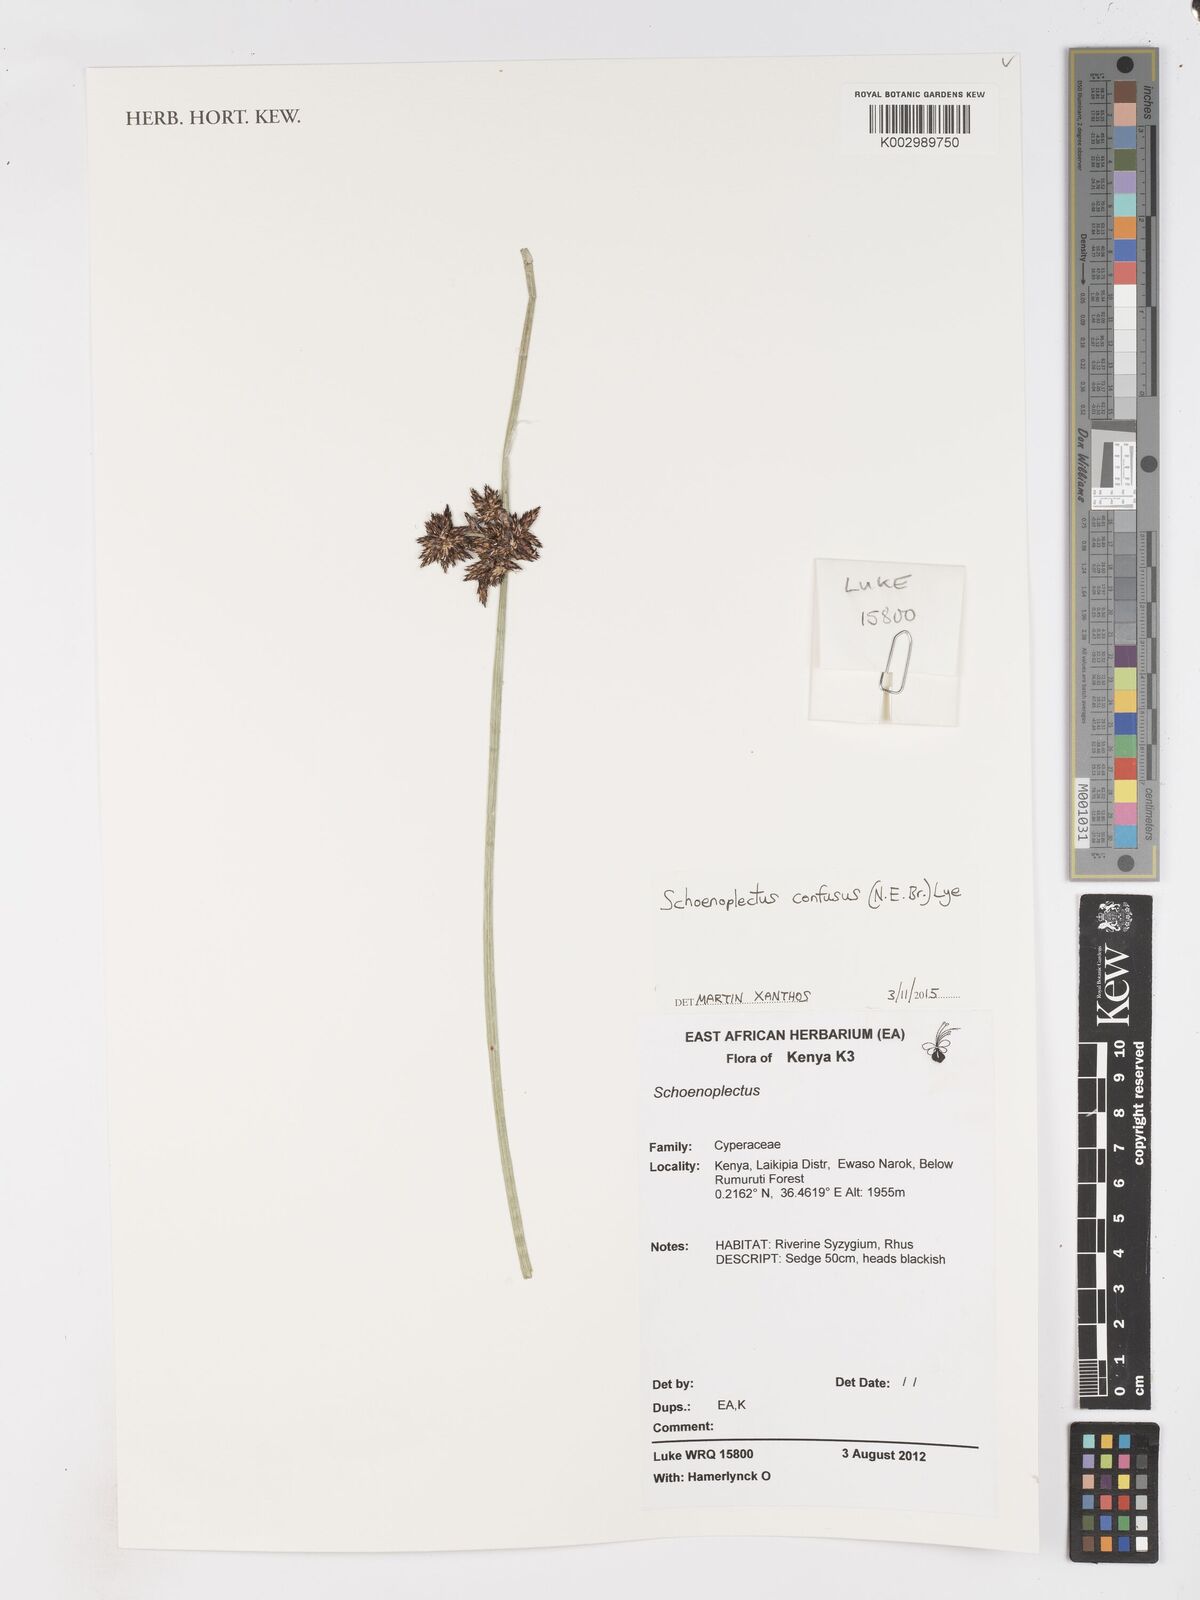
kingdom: Plantae
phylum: Tracheophyta
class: Liliopsida
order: Poales
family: Cyperaceae
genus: Schoenoplectiella
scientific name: Schoenoplectiella confusa
